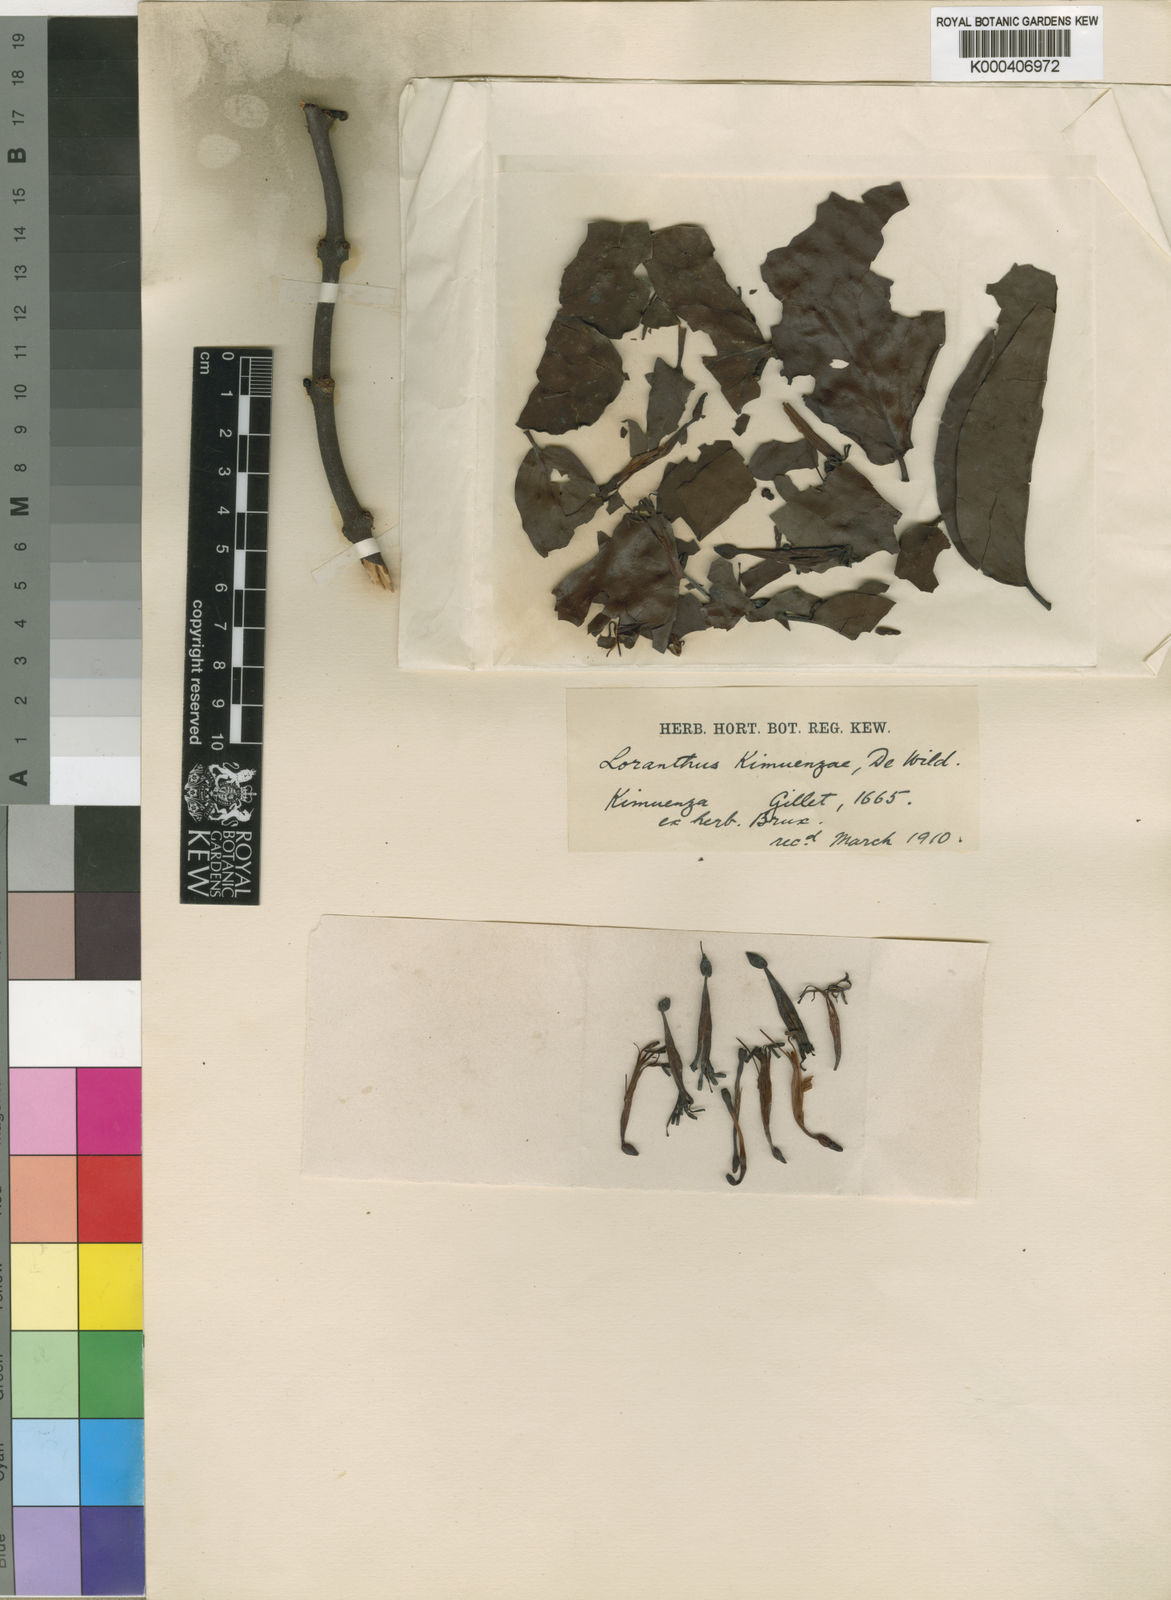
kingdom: Plantae
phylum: Tracheophyta
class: Magnoliopsida
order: Santalales
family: Loranthaceae
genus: Tapinanthus
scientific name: Tapinanthus constrictiflorus
